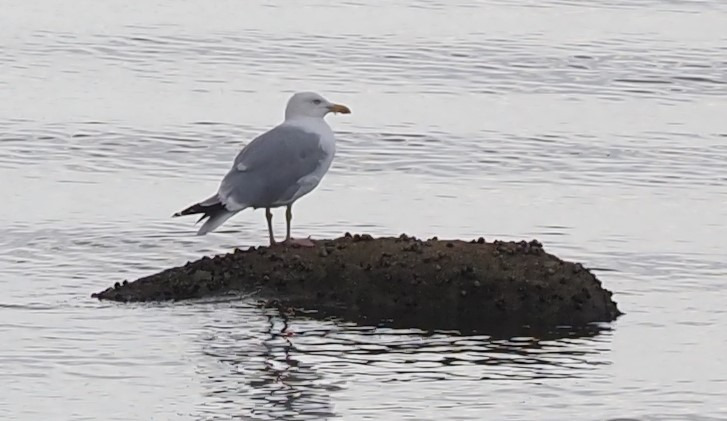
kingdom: Animalia
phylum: Chordata
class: Aves
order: Charadriiformes
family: Laridae
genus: Larus
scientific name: Larus argentatus
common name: Sølvmåge
